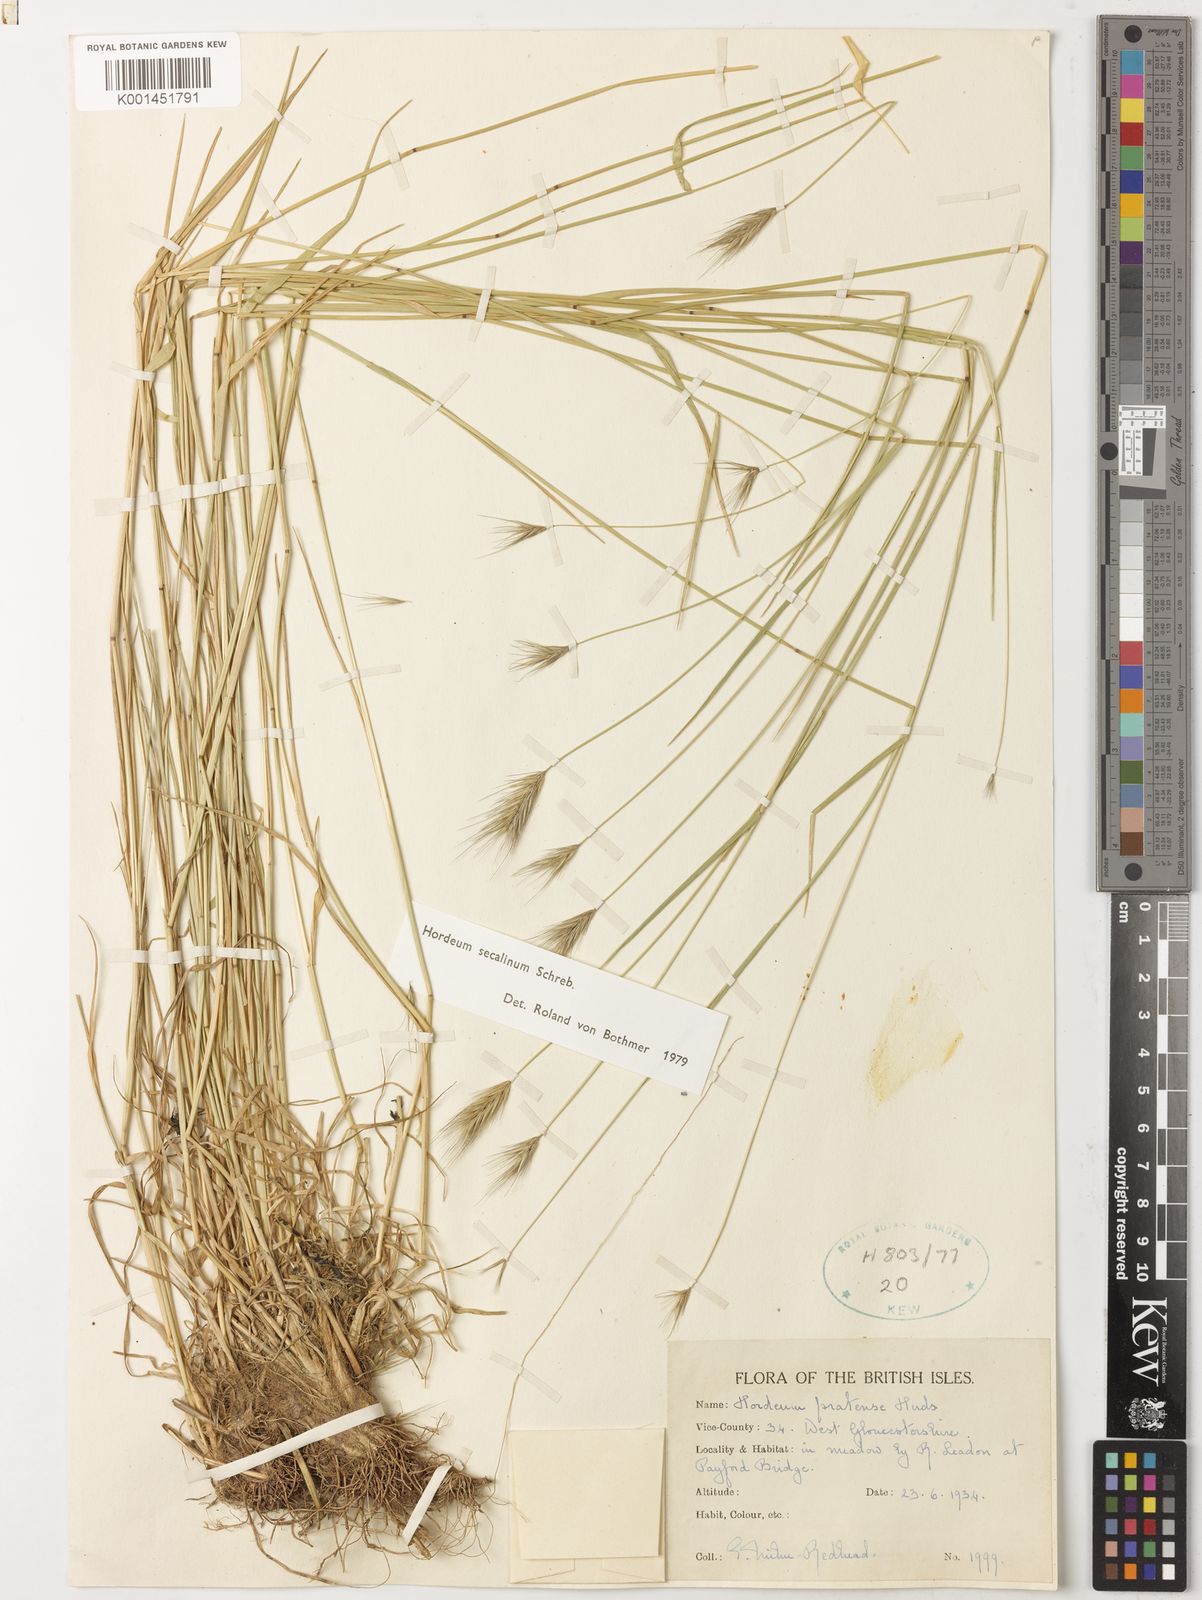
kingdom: Plantae
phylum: Tracheophyta
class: Liliopsida
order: Poales
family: Poaceae
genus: Hordeum
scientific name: Hordeum secalinum
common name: Meadow barley
